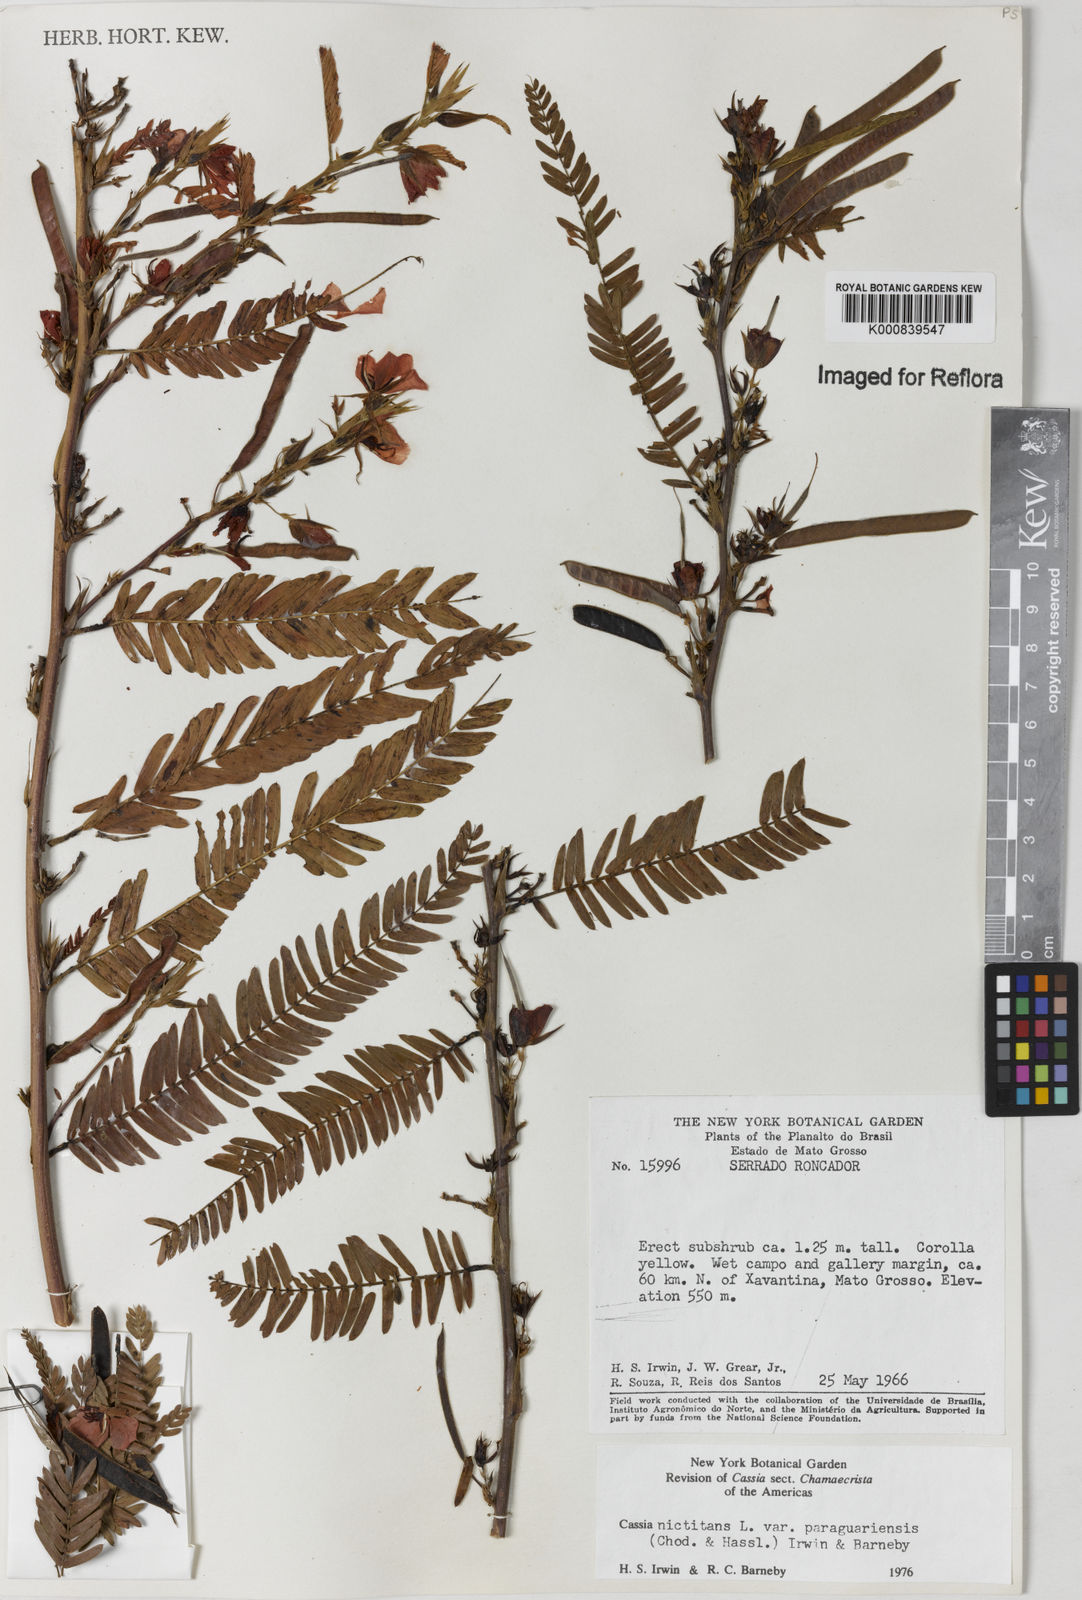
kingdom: Plantae
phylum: Tracheophyta
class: Magnoliopsida
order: Fabales
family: Fabaceae
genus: Chamaecrista
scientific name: Chamaecrista nictitans
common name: Sensitive cassia
